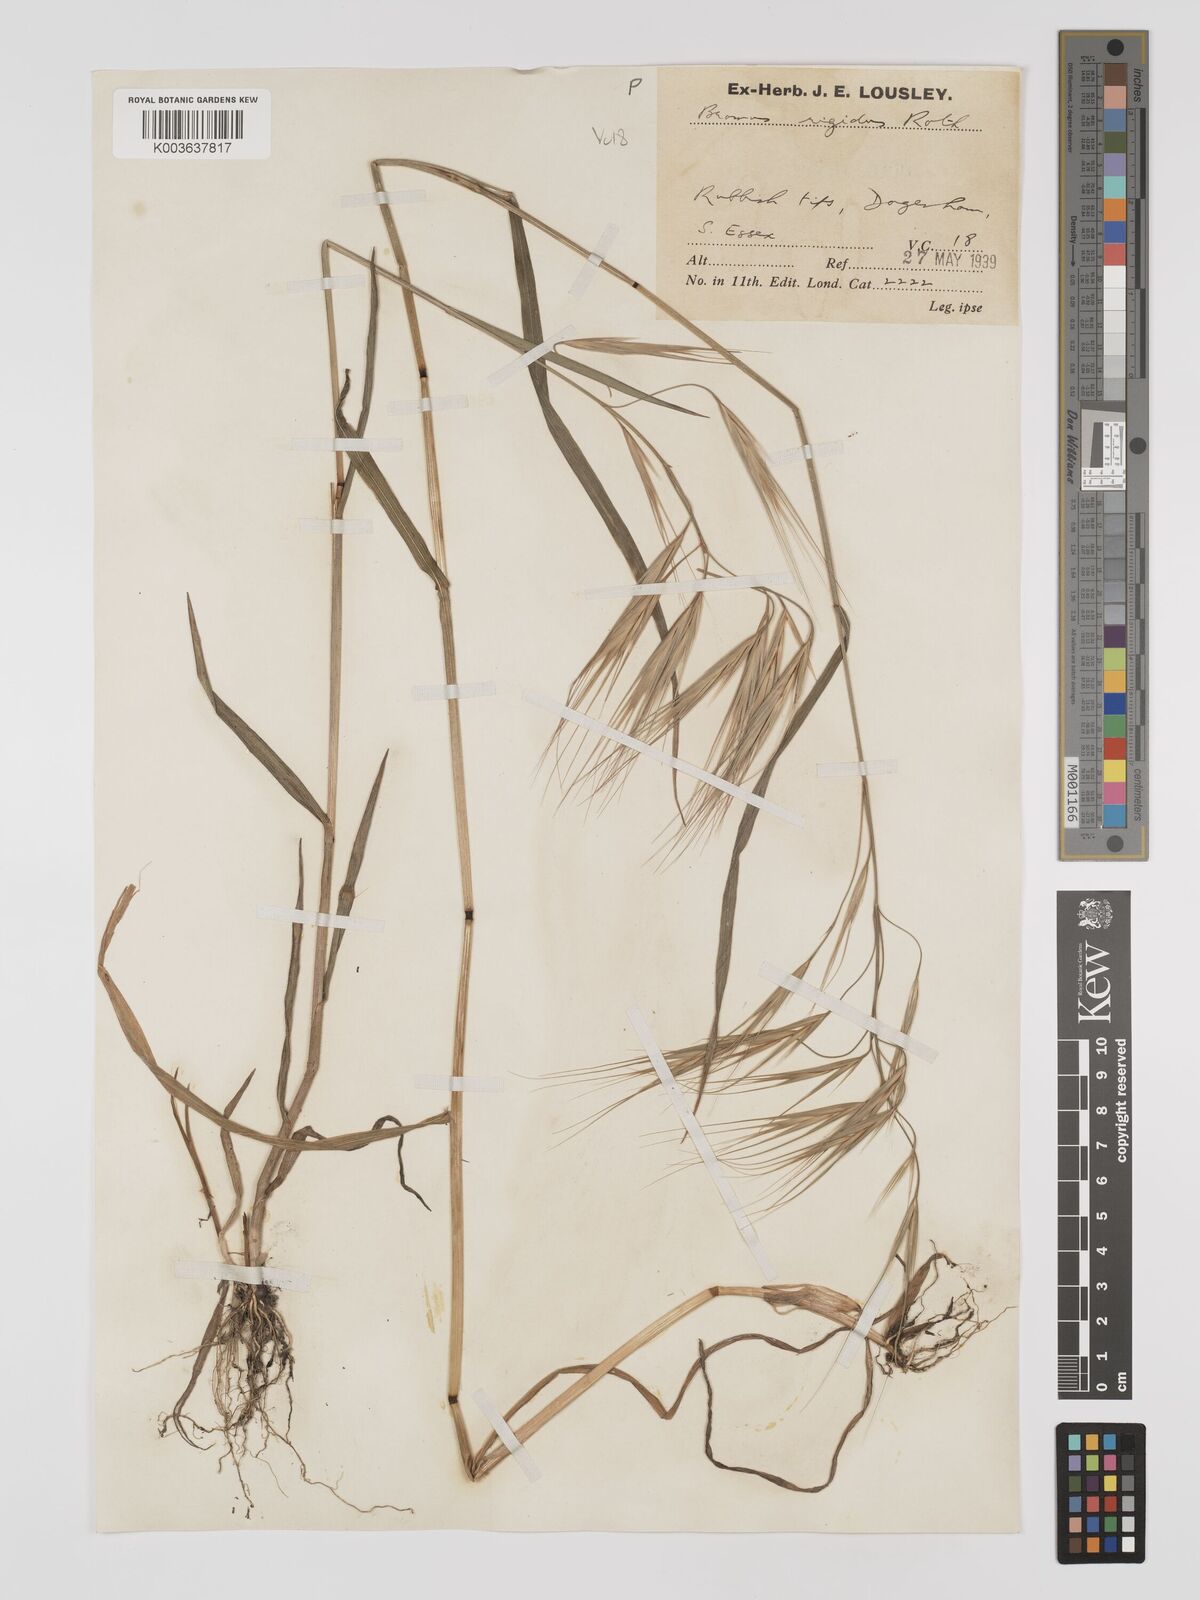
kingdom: Plantae
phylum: Tracheophyta
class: Liliopsida
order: Poales
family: Poaceae
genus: Bromus
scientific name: Bromus
